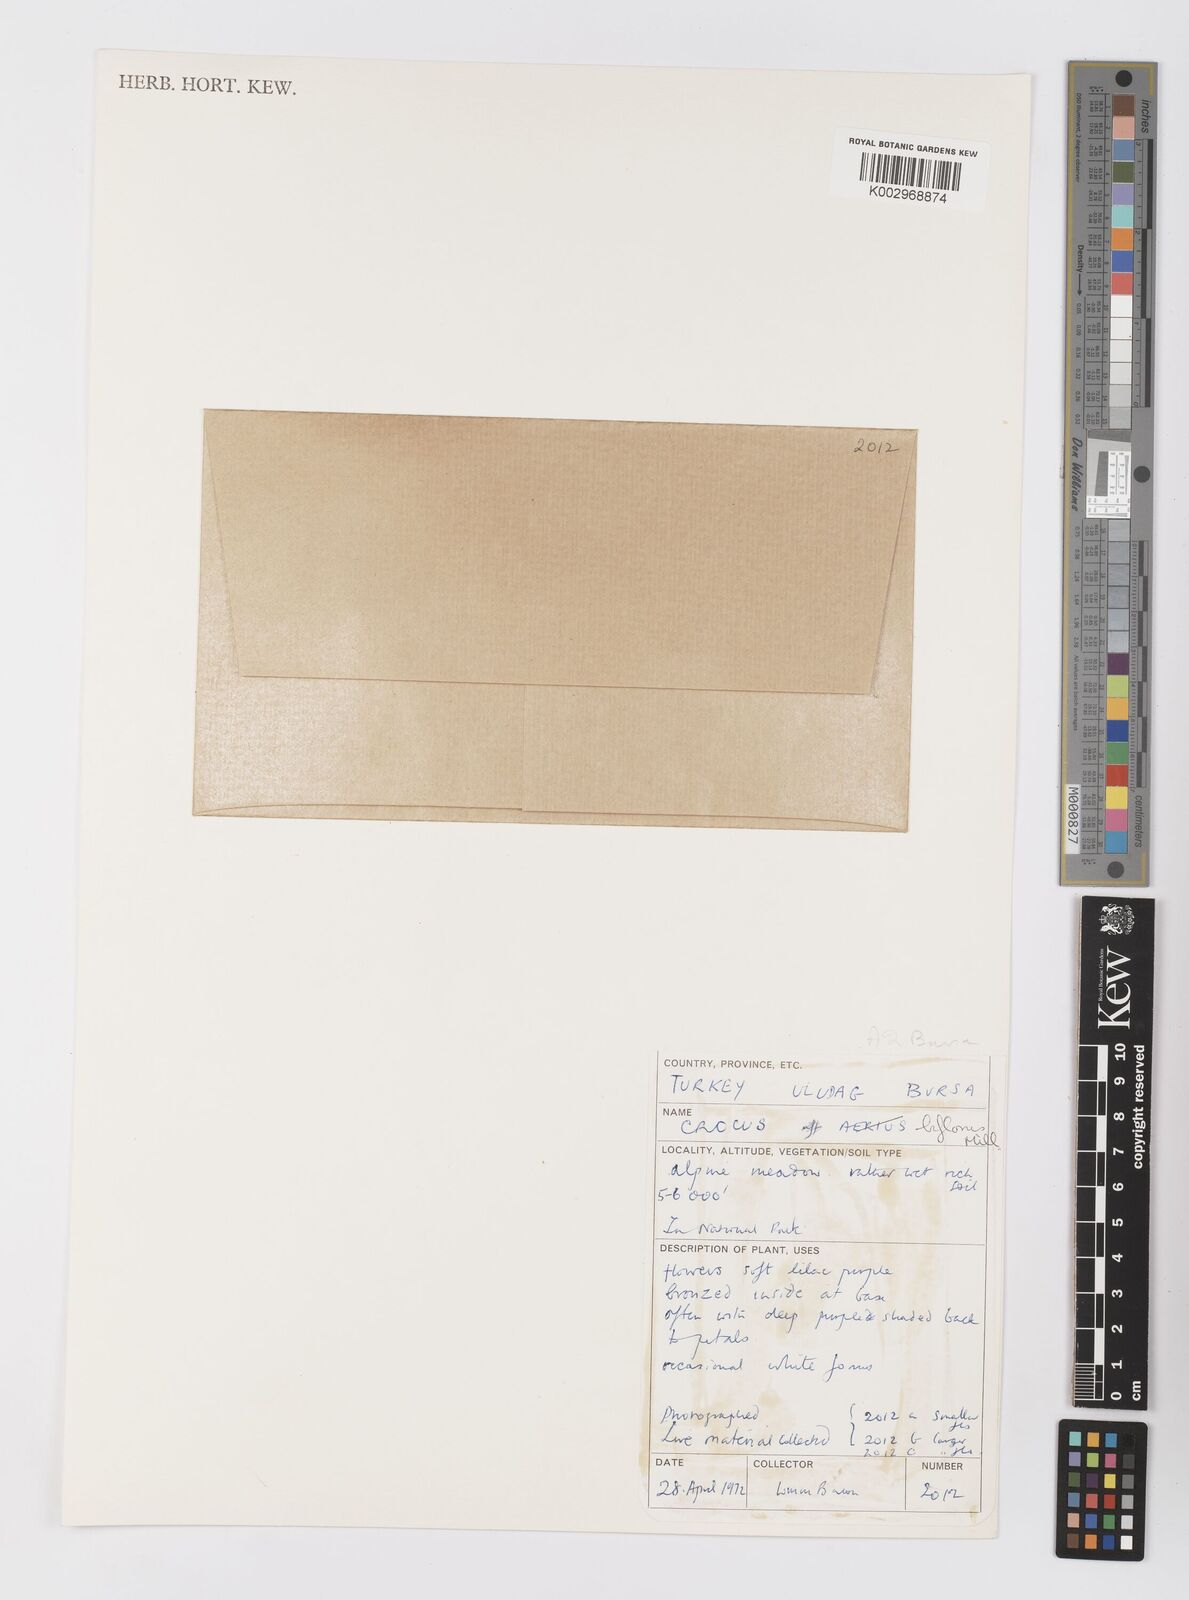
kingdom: Plantae
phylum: Tracheophyta
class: Liliopsida
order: Asparagales
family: Iridaceae
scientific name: Iridaceae
